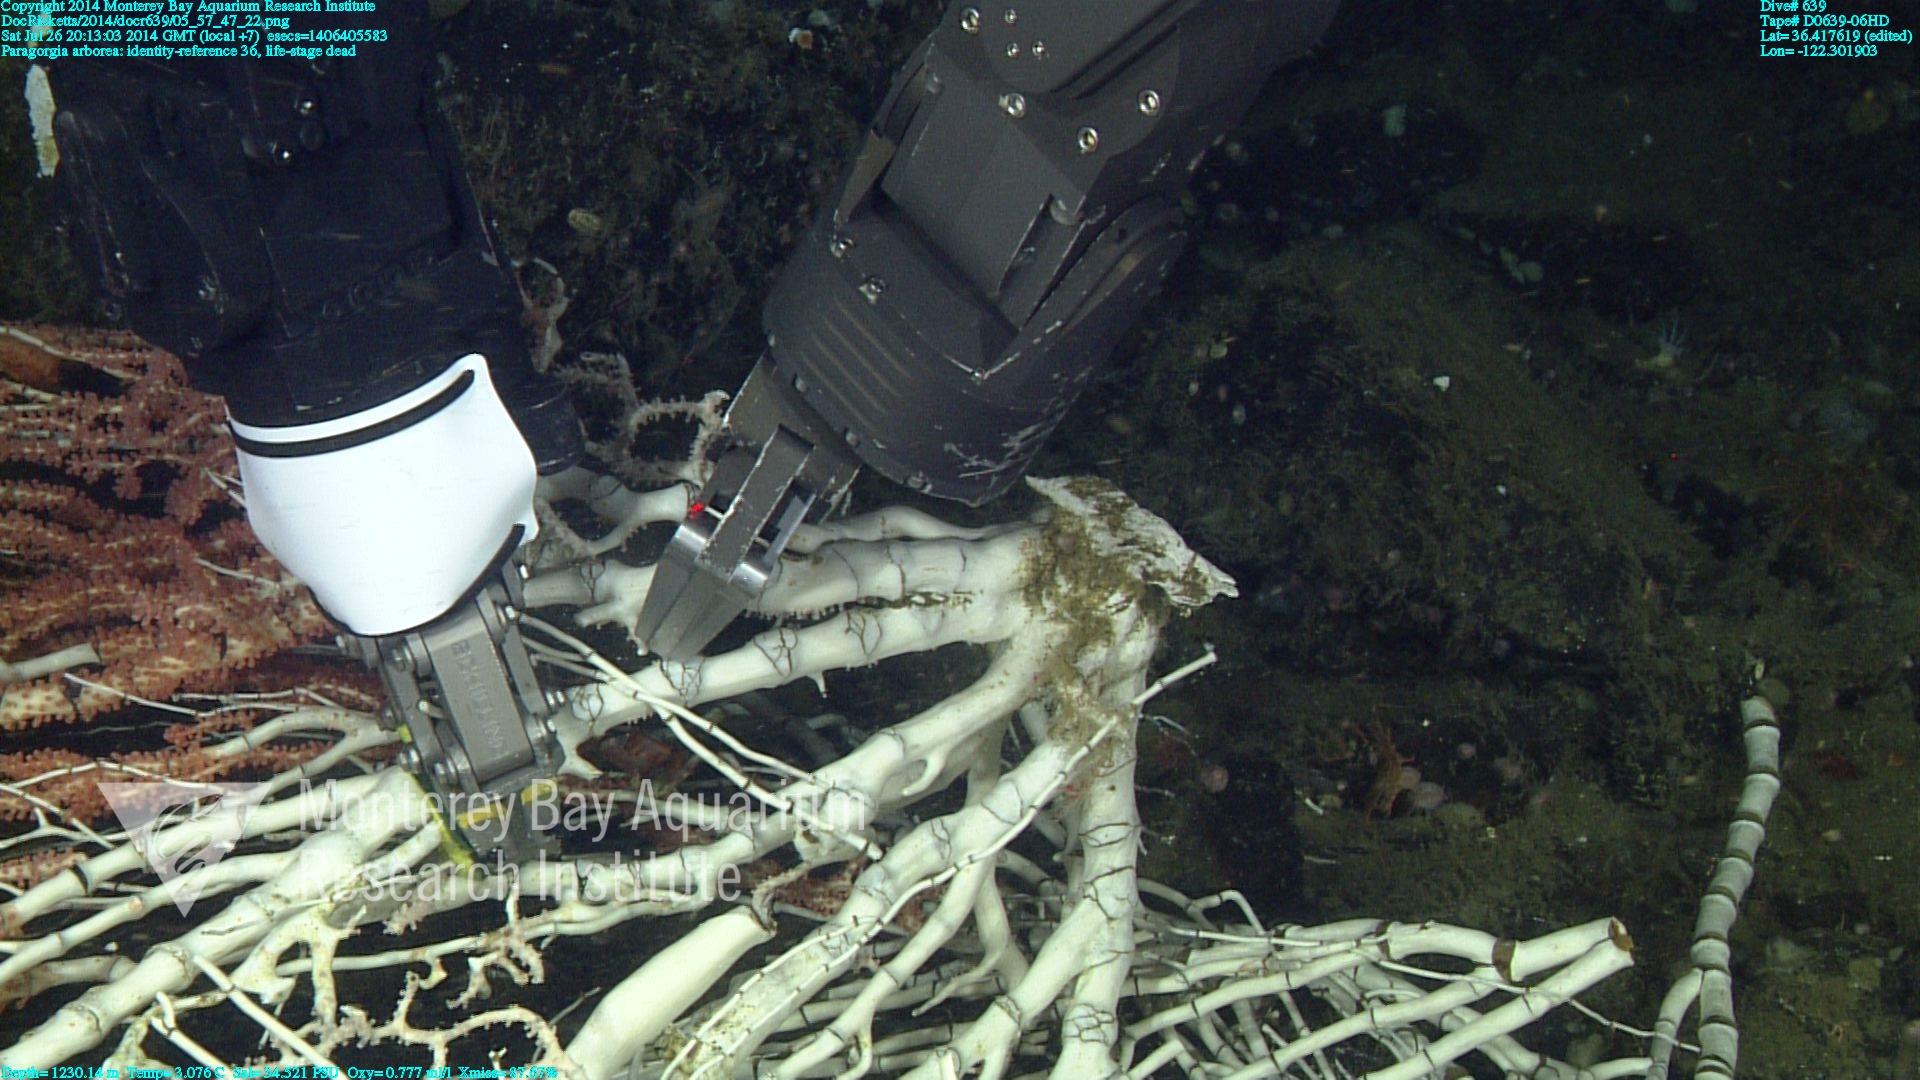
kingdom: Animalia
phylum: Cnidaria
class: Anthozoa
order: Scleralcyonacea
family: Coralliidae
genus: Paragorgia
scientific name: Paragorgia arborea
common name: Bubble gum coral
